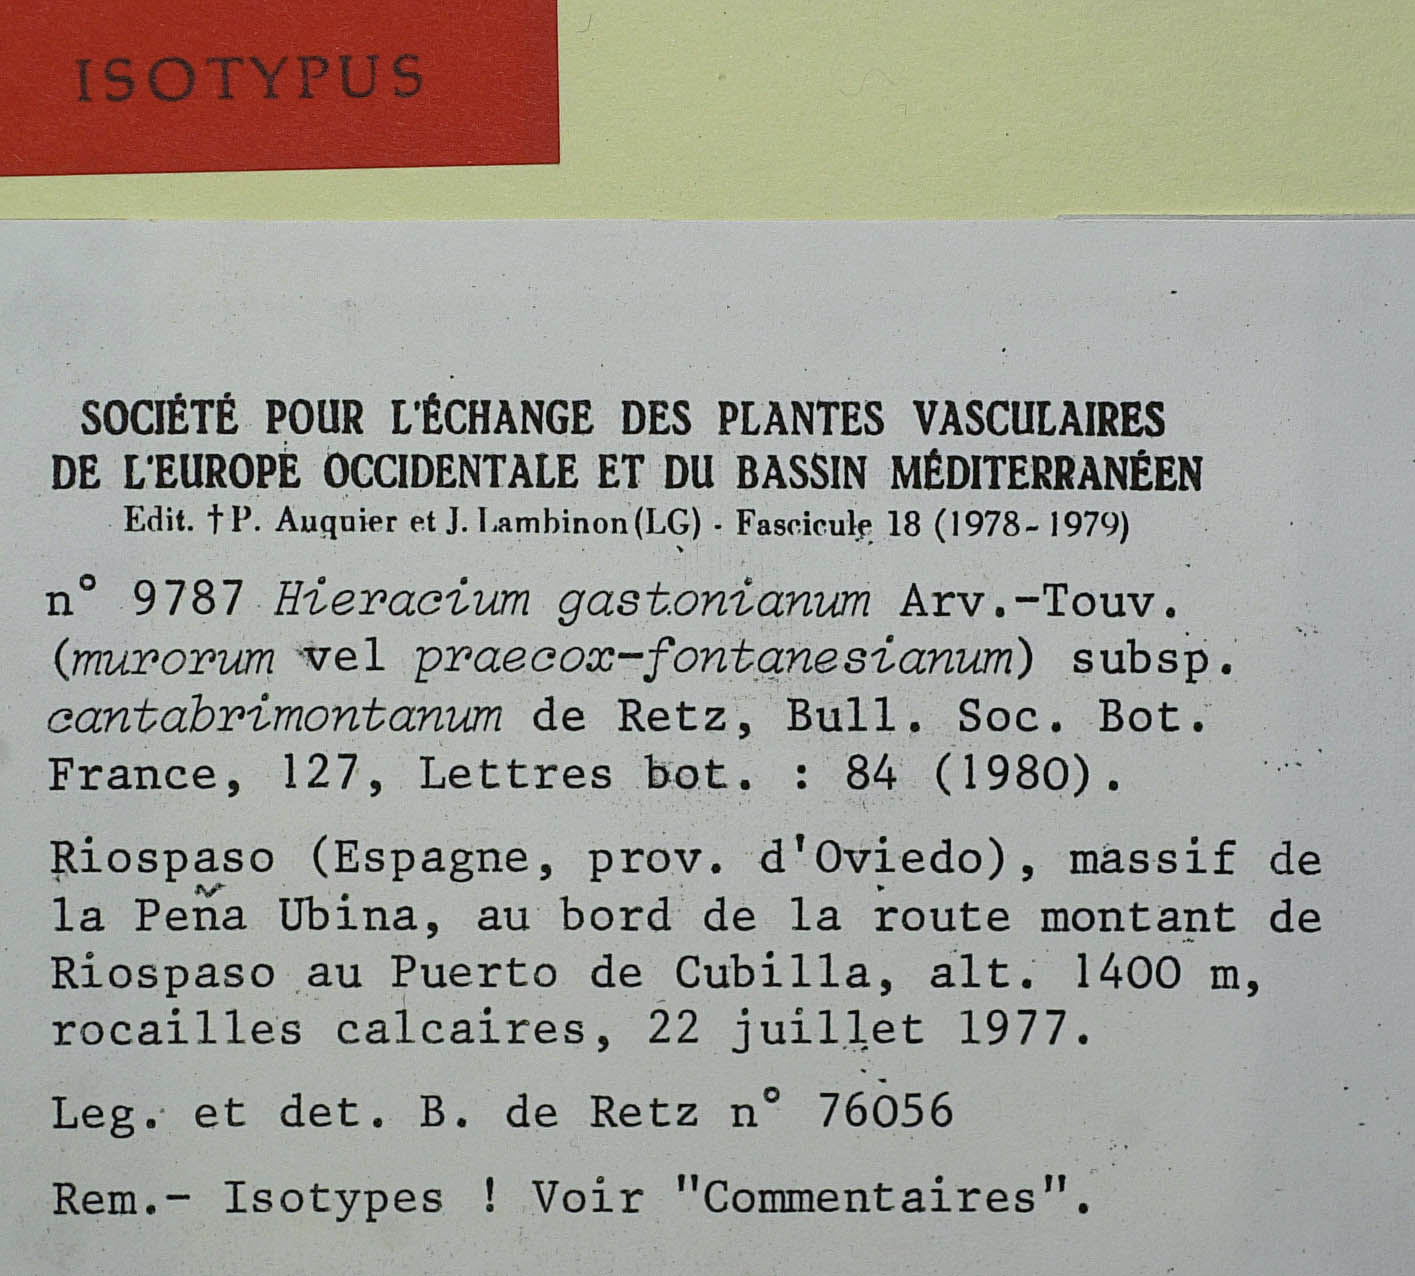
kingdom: Plantae
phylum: Tracheophyta
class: Magnoliopsida
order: Asterales
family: Asteraceae
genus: Hieracium
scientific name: Hieracium legionense
